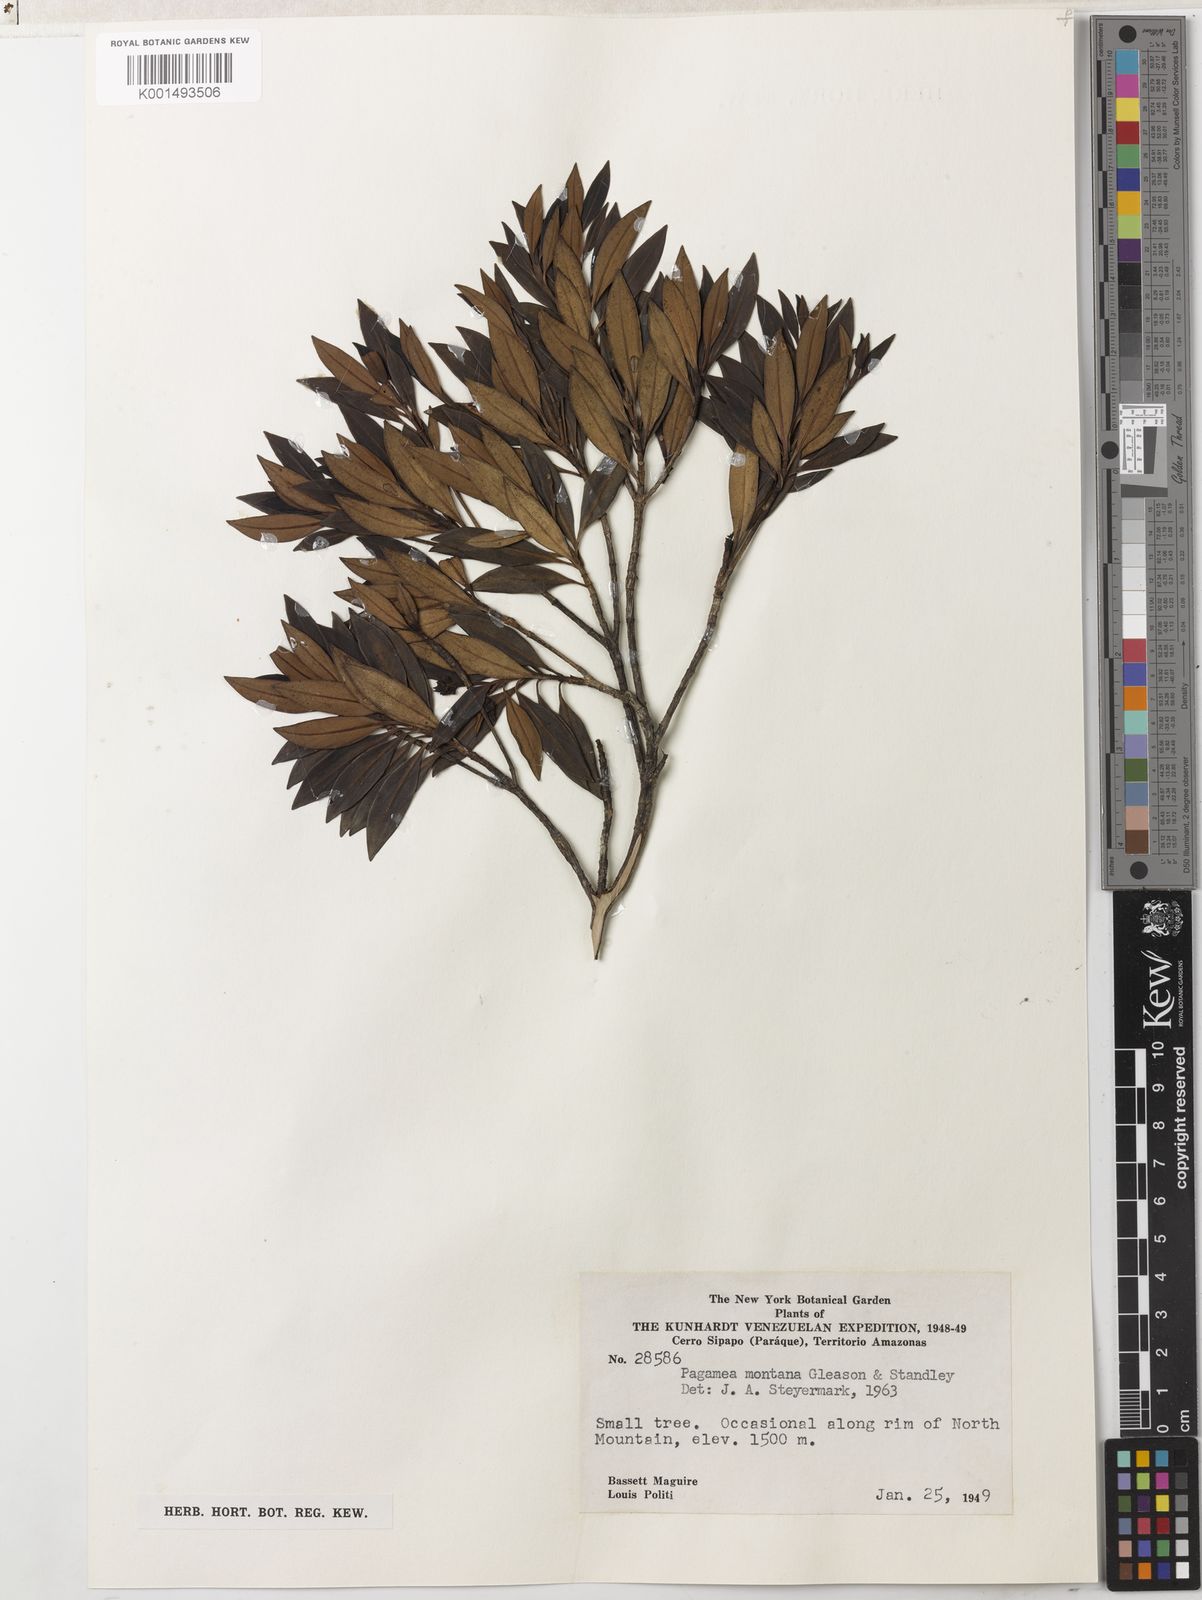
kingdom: Plantae
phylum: Tracheophyta
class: Magnoliopsida
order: Gentianales
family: Rubiaceae
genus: Pagamea
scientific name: Pagamea montana
